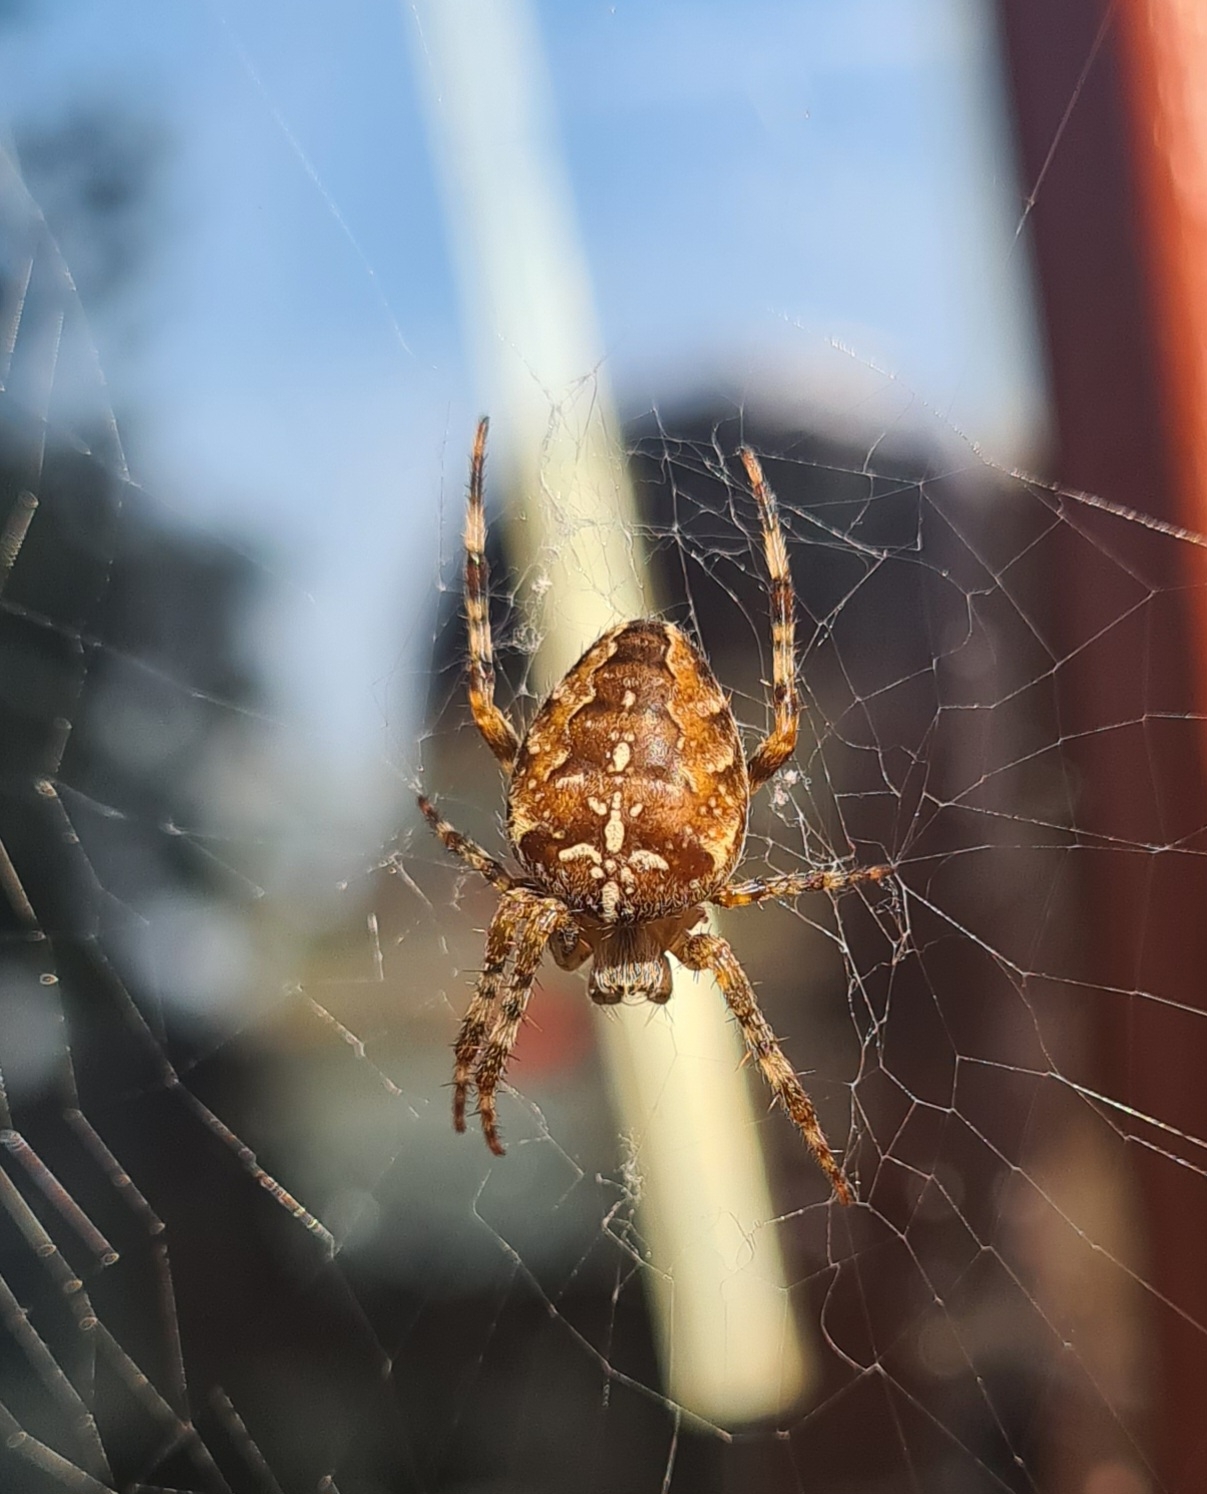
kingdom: Animalia
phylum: Arthropoda
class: Arachnida
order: Araneae
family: Araneidae
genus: Araneus
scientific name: Araneus diadematus
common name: Korsedderkop
